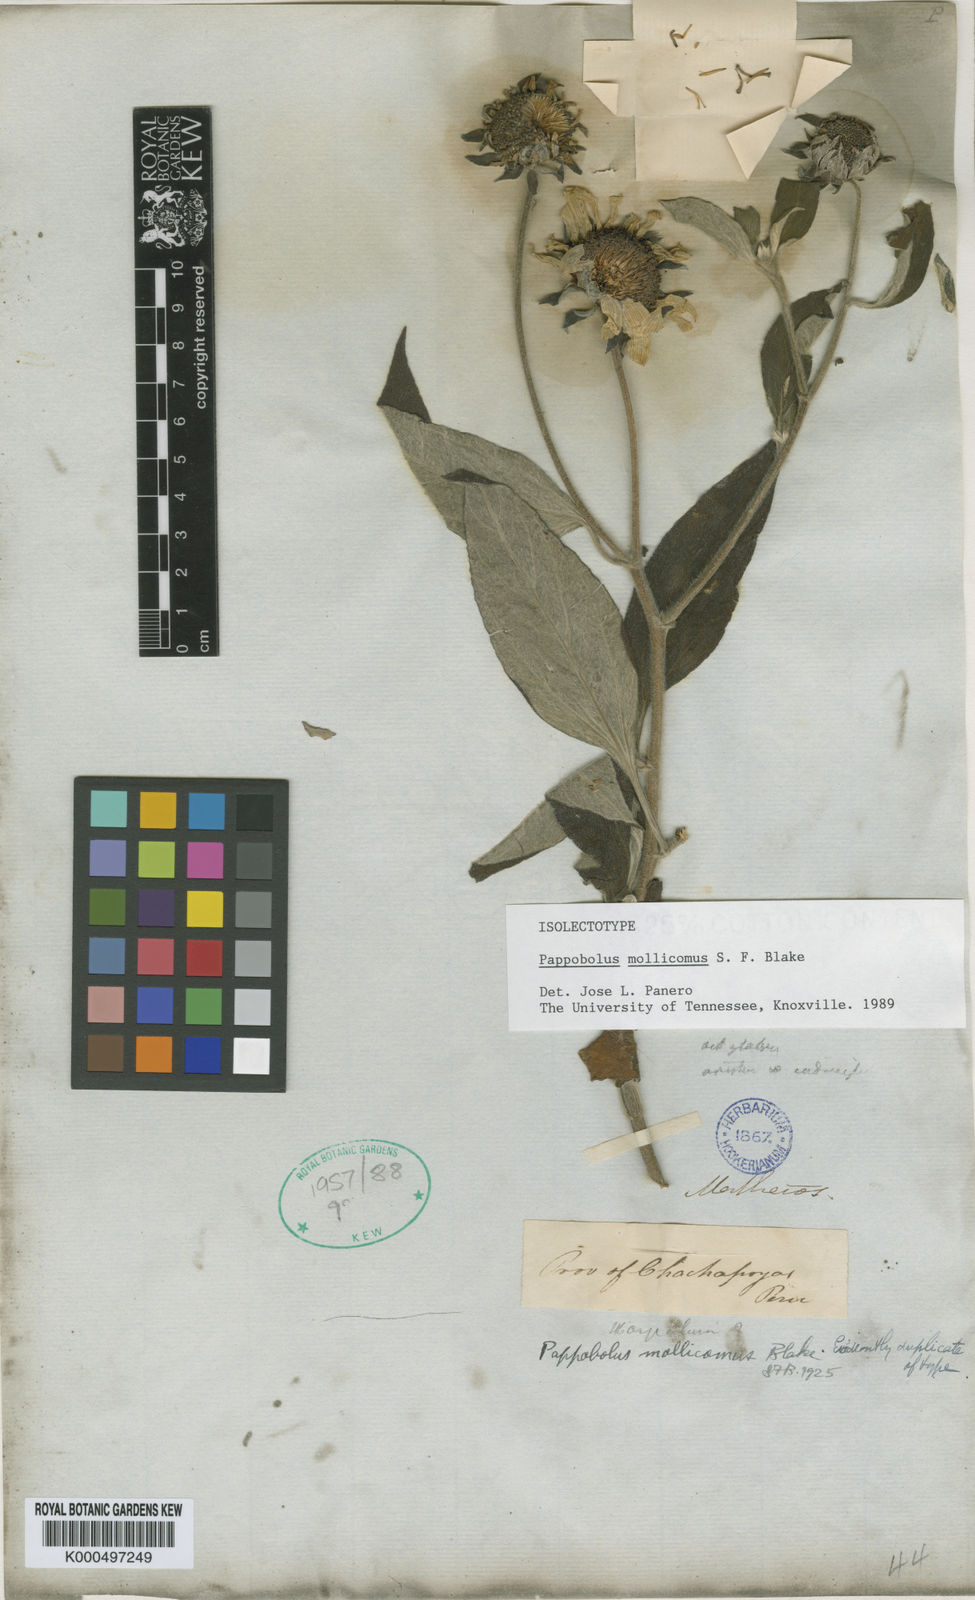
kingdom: Plantae
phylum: Tracheophyta
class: Magnoliopsida
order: Asterales
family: Asteraceae
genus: Pappobolus
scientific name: Pappobolus mollicomus
